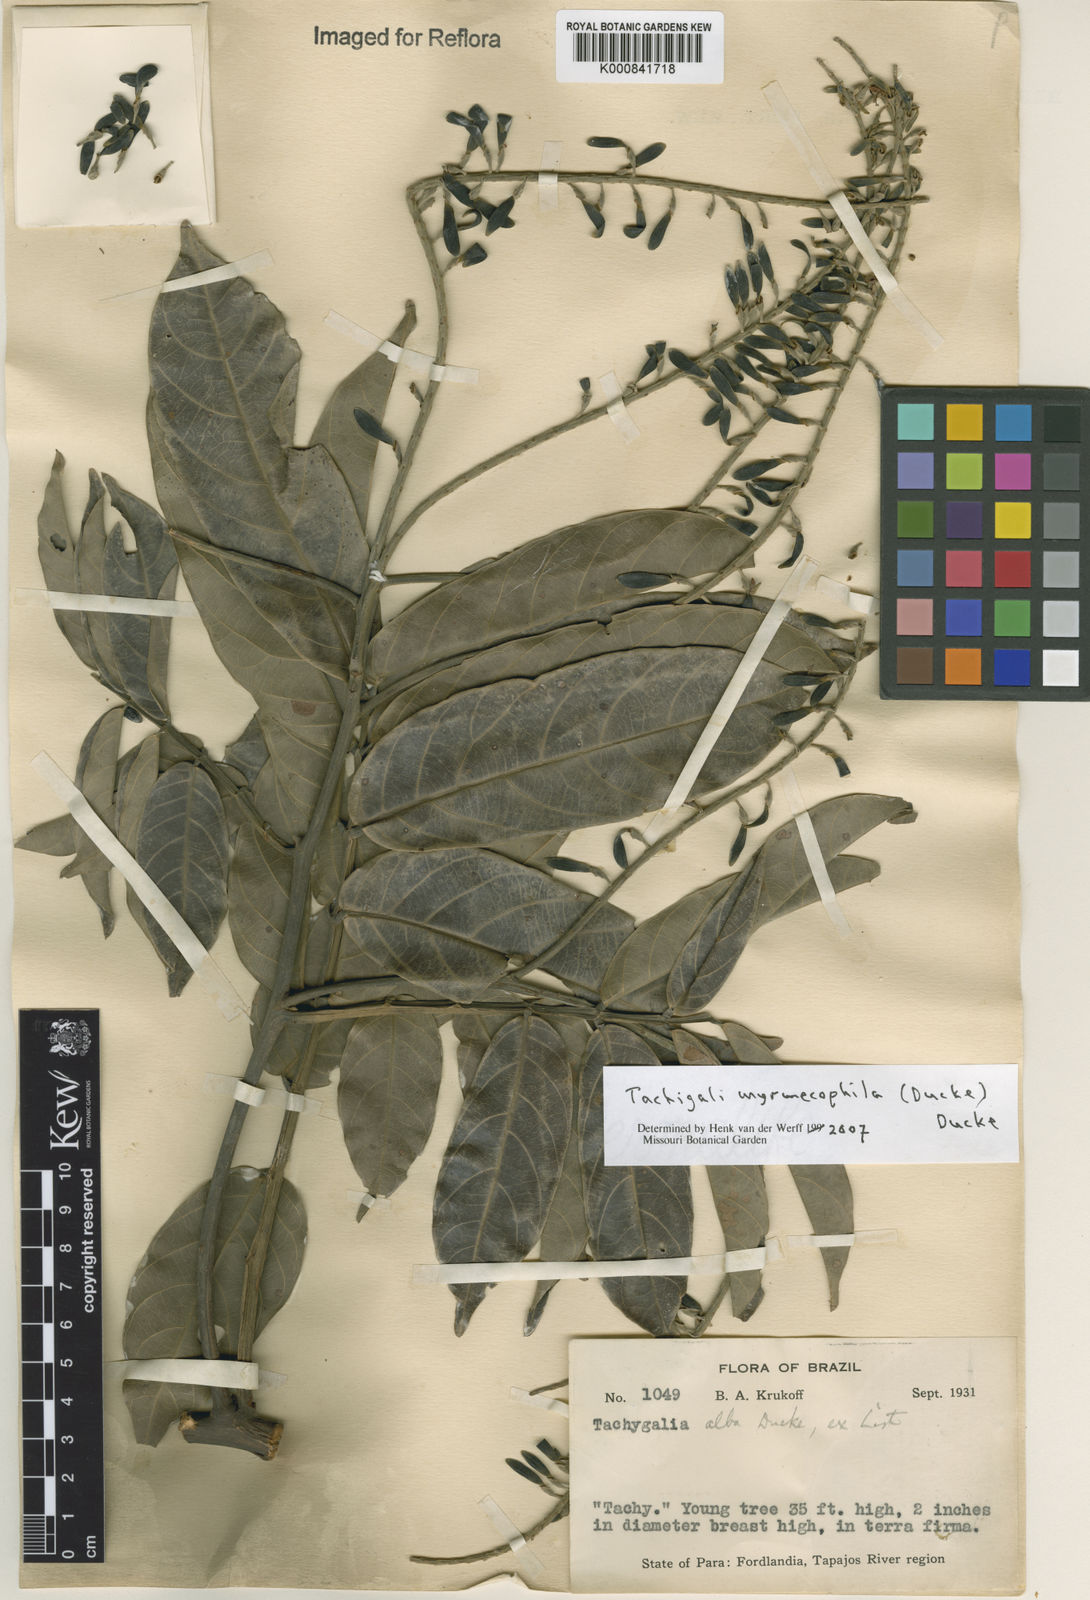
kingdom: Plantae
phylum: Tracheophyta
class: Magnoliopsida
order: Fabales
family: Fabaceae
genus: Tachigali
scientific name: Tachigali glauca
